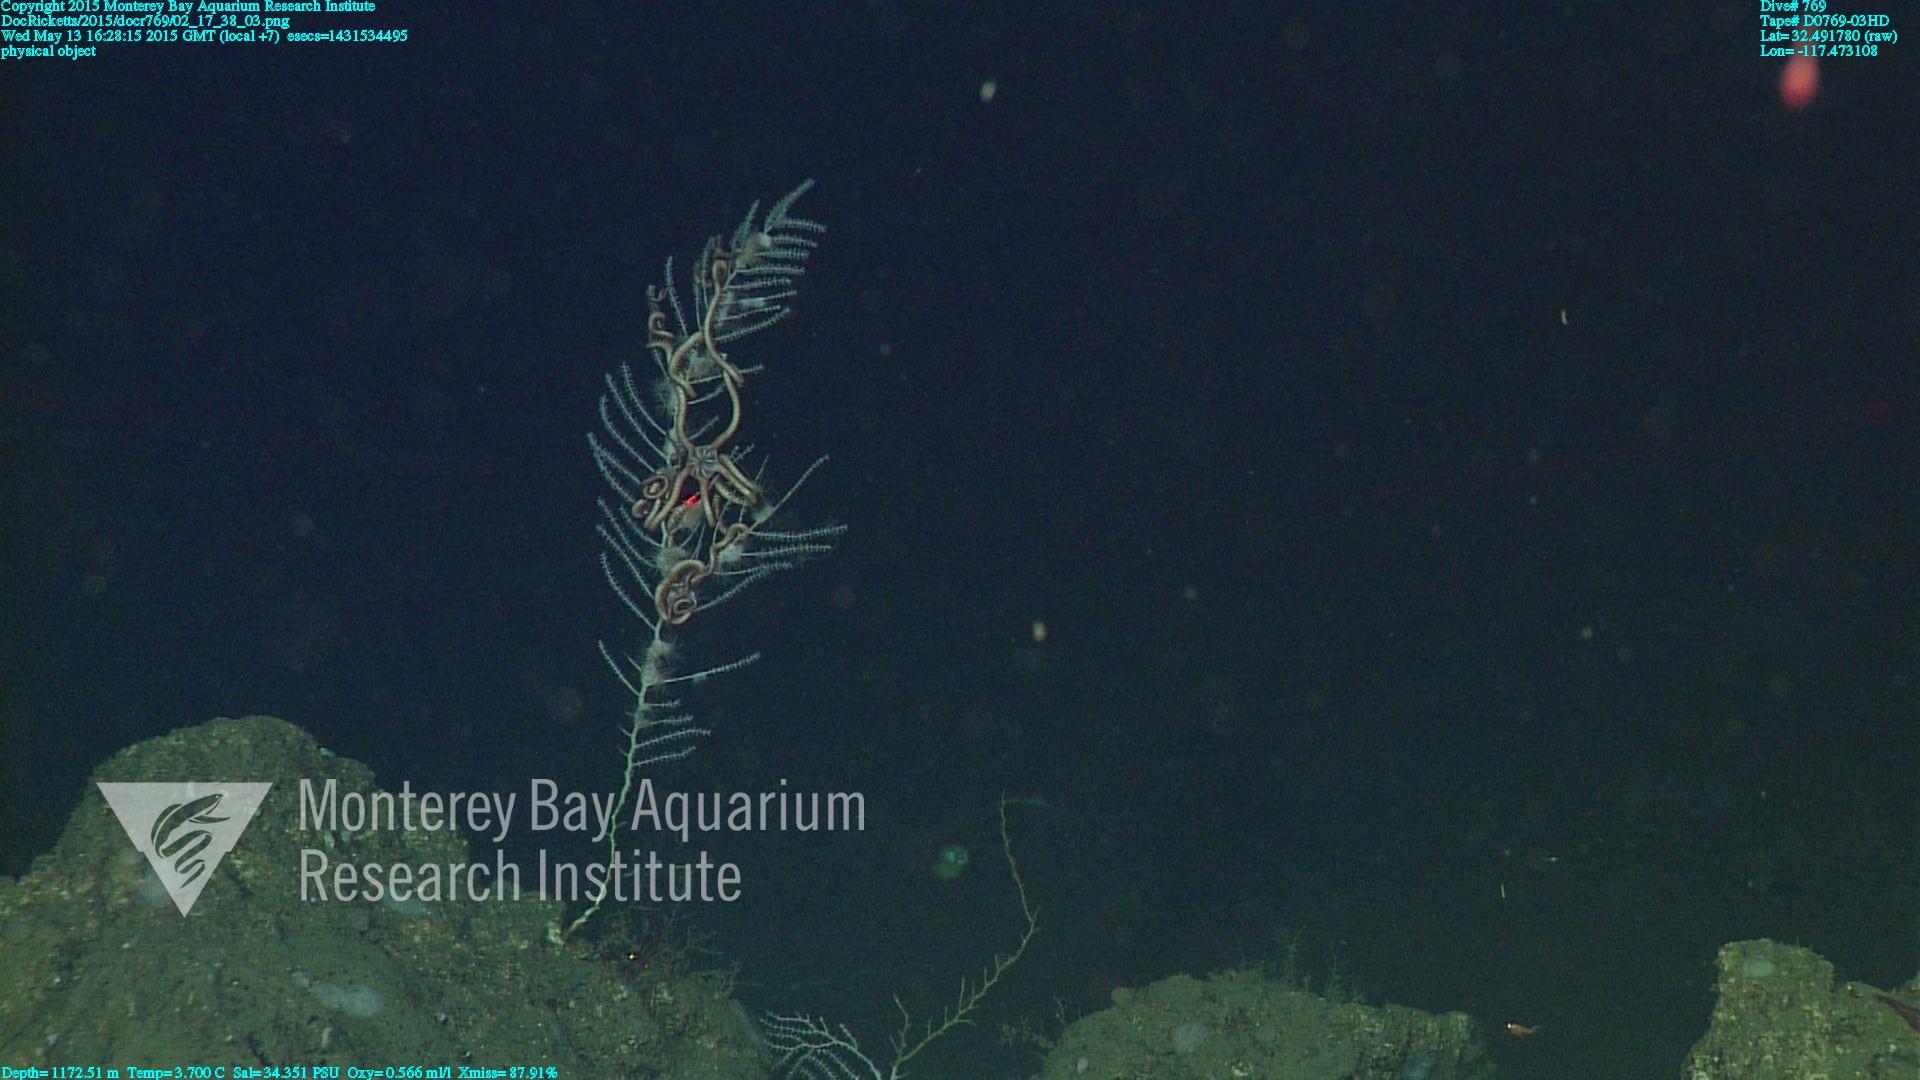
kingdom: Animalia
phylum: Cnidaria
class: Anthozoa
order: Scleralcyonacea
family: Primnoidae
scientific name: Primnoidae
